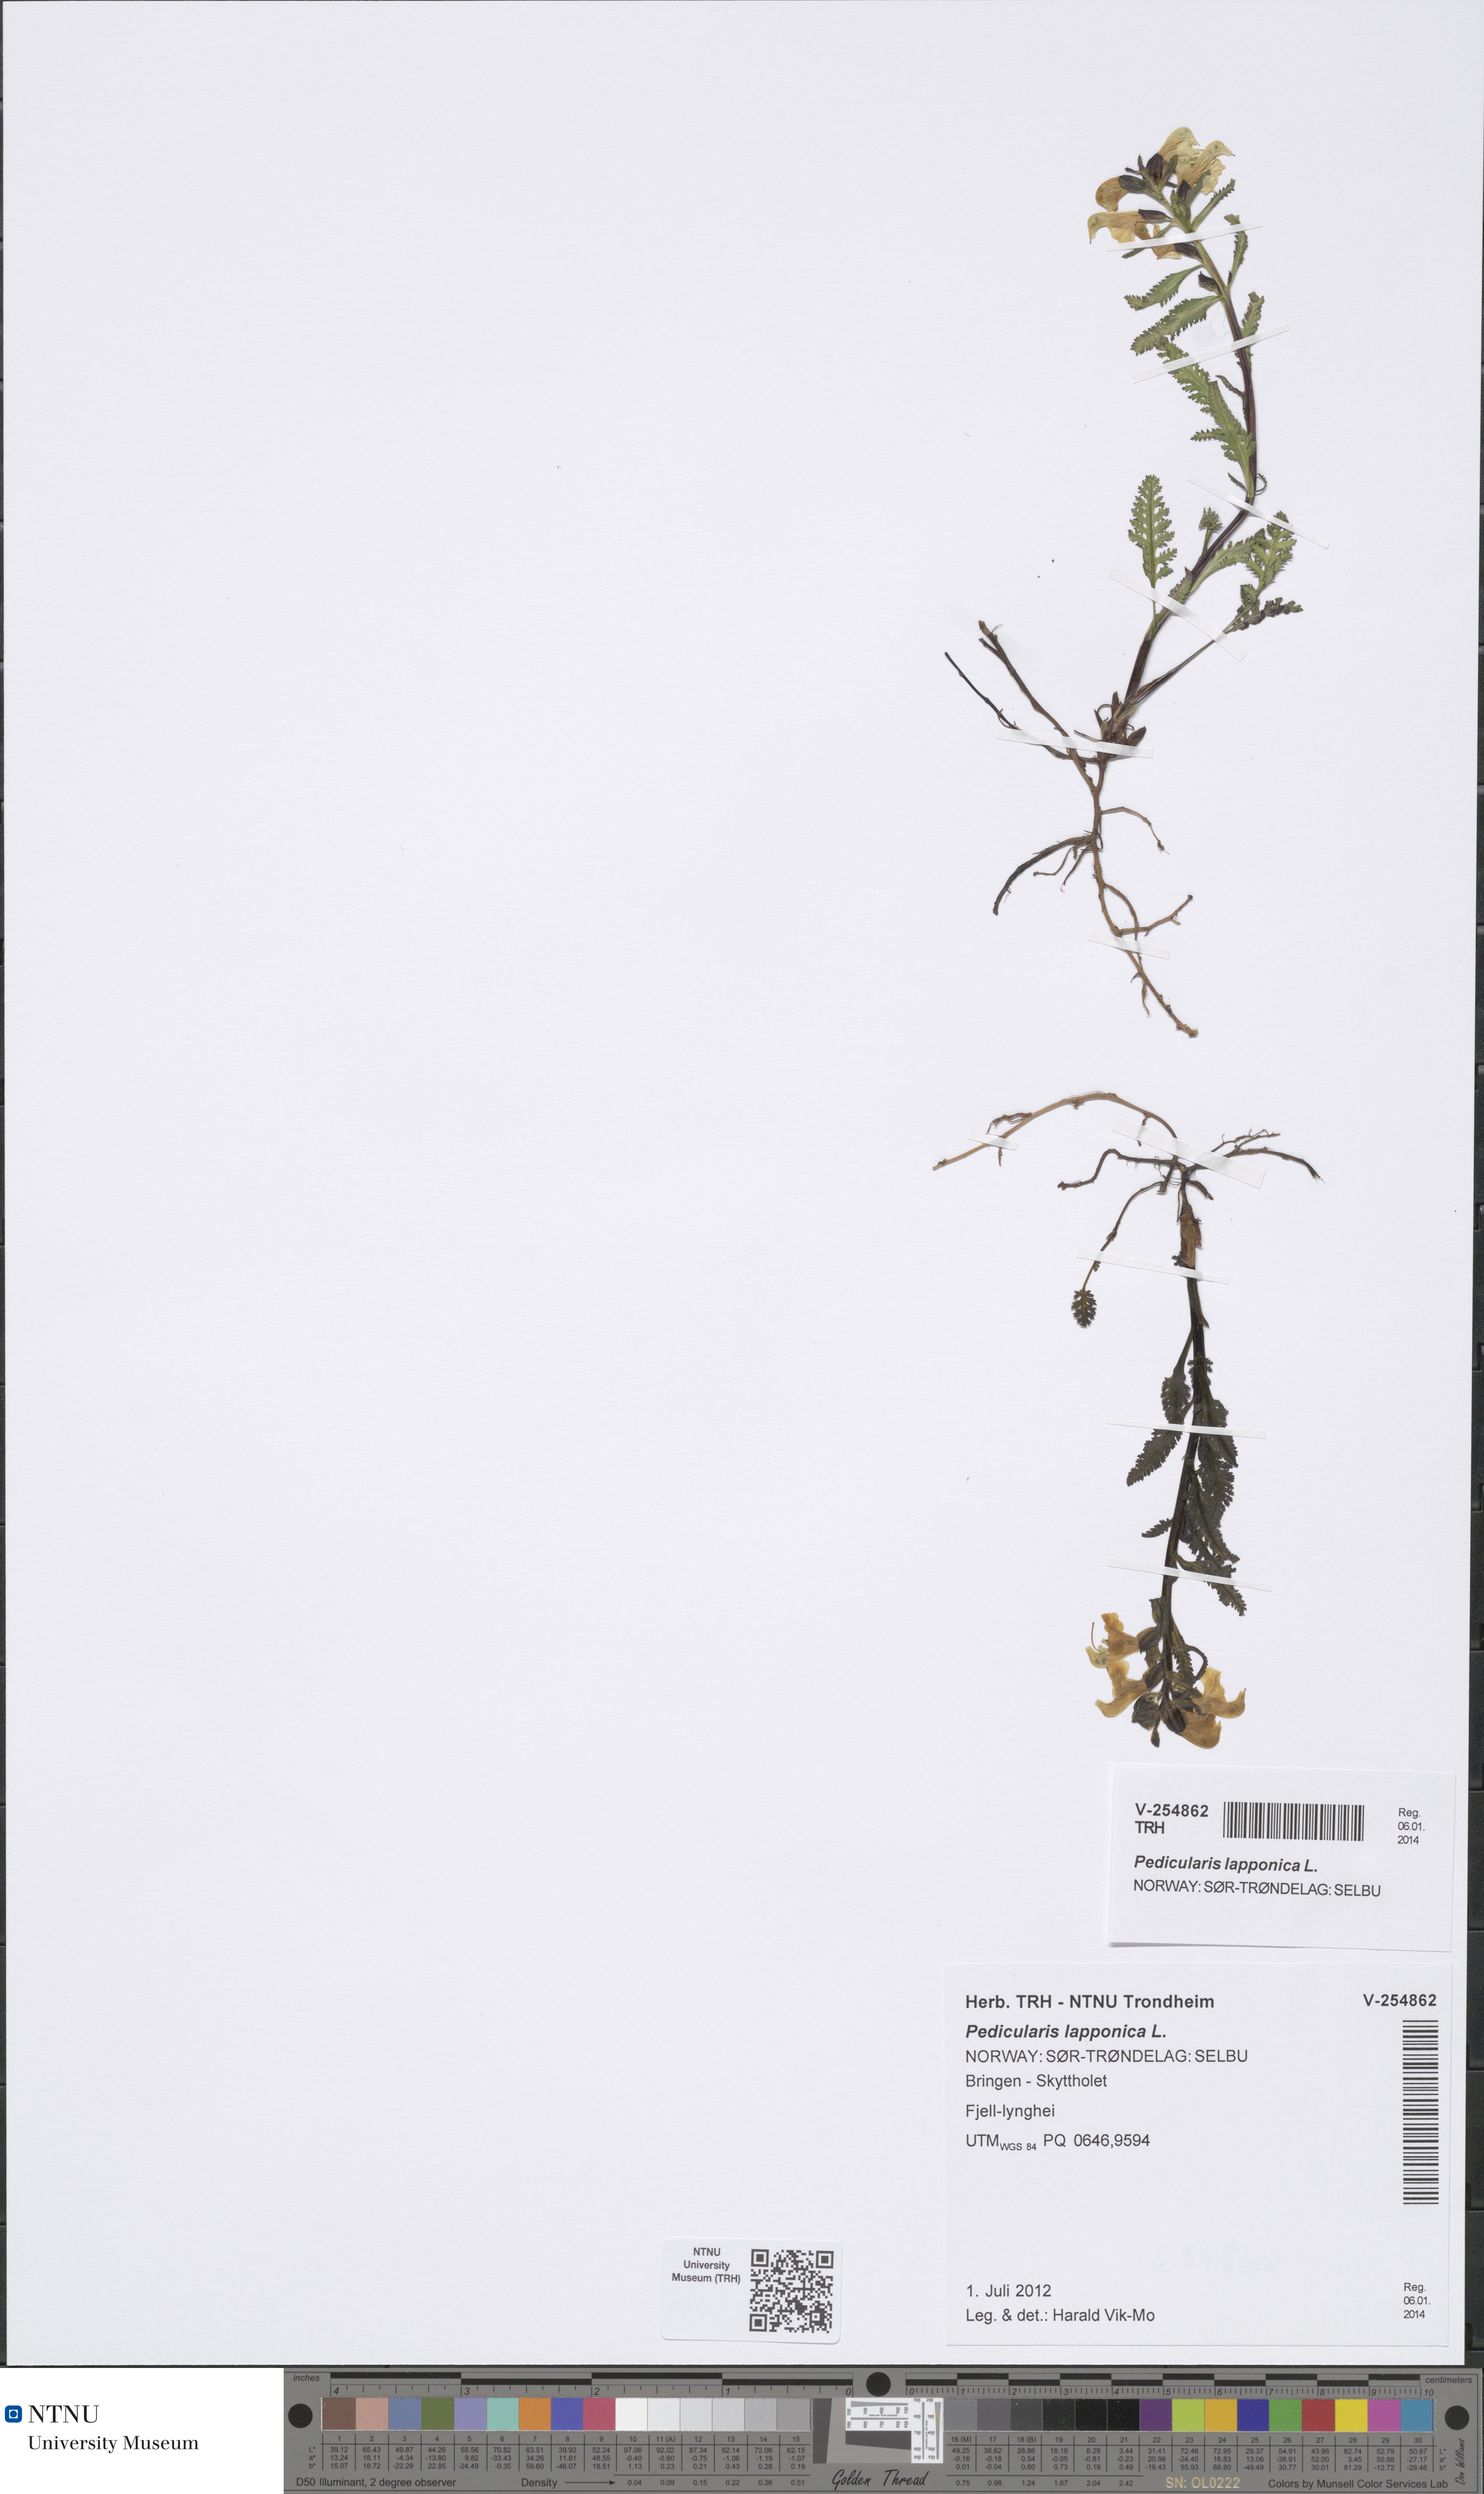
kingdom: Plantae
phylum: Tracheophyta
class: Magnoliopsida
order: Lamiales
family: Orobanchaceae
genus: Pedicularis
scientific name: Pedicularis lapponica
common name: Lapland lousewort
